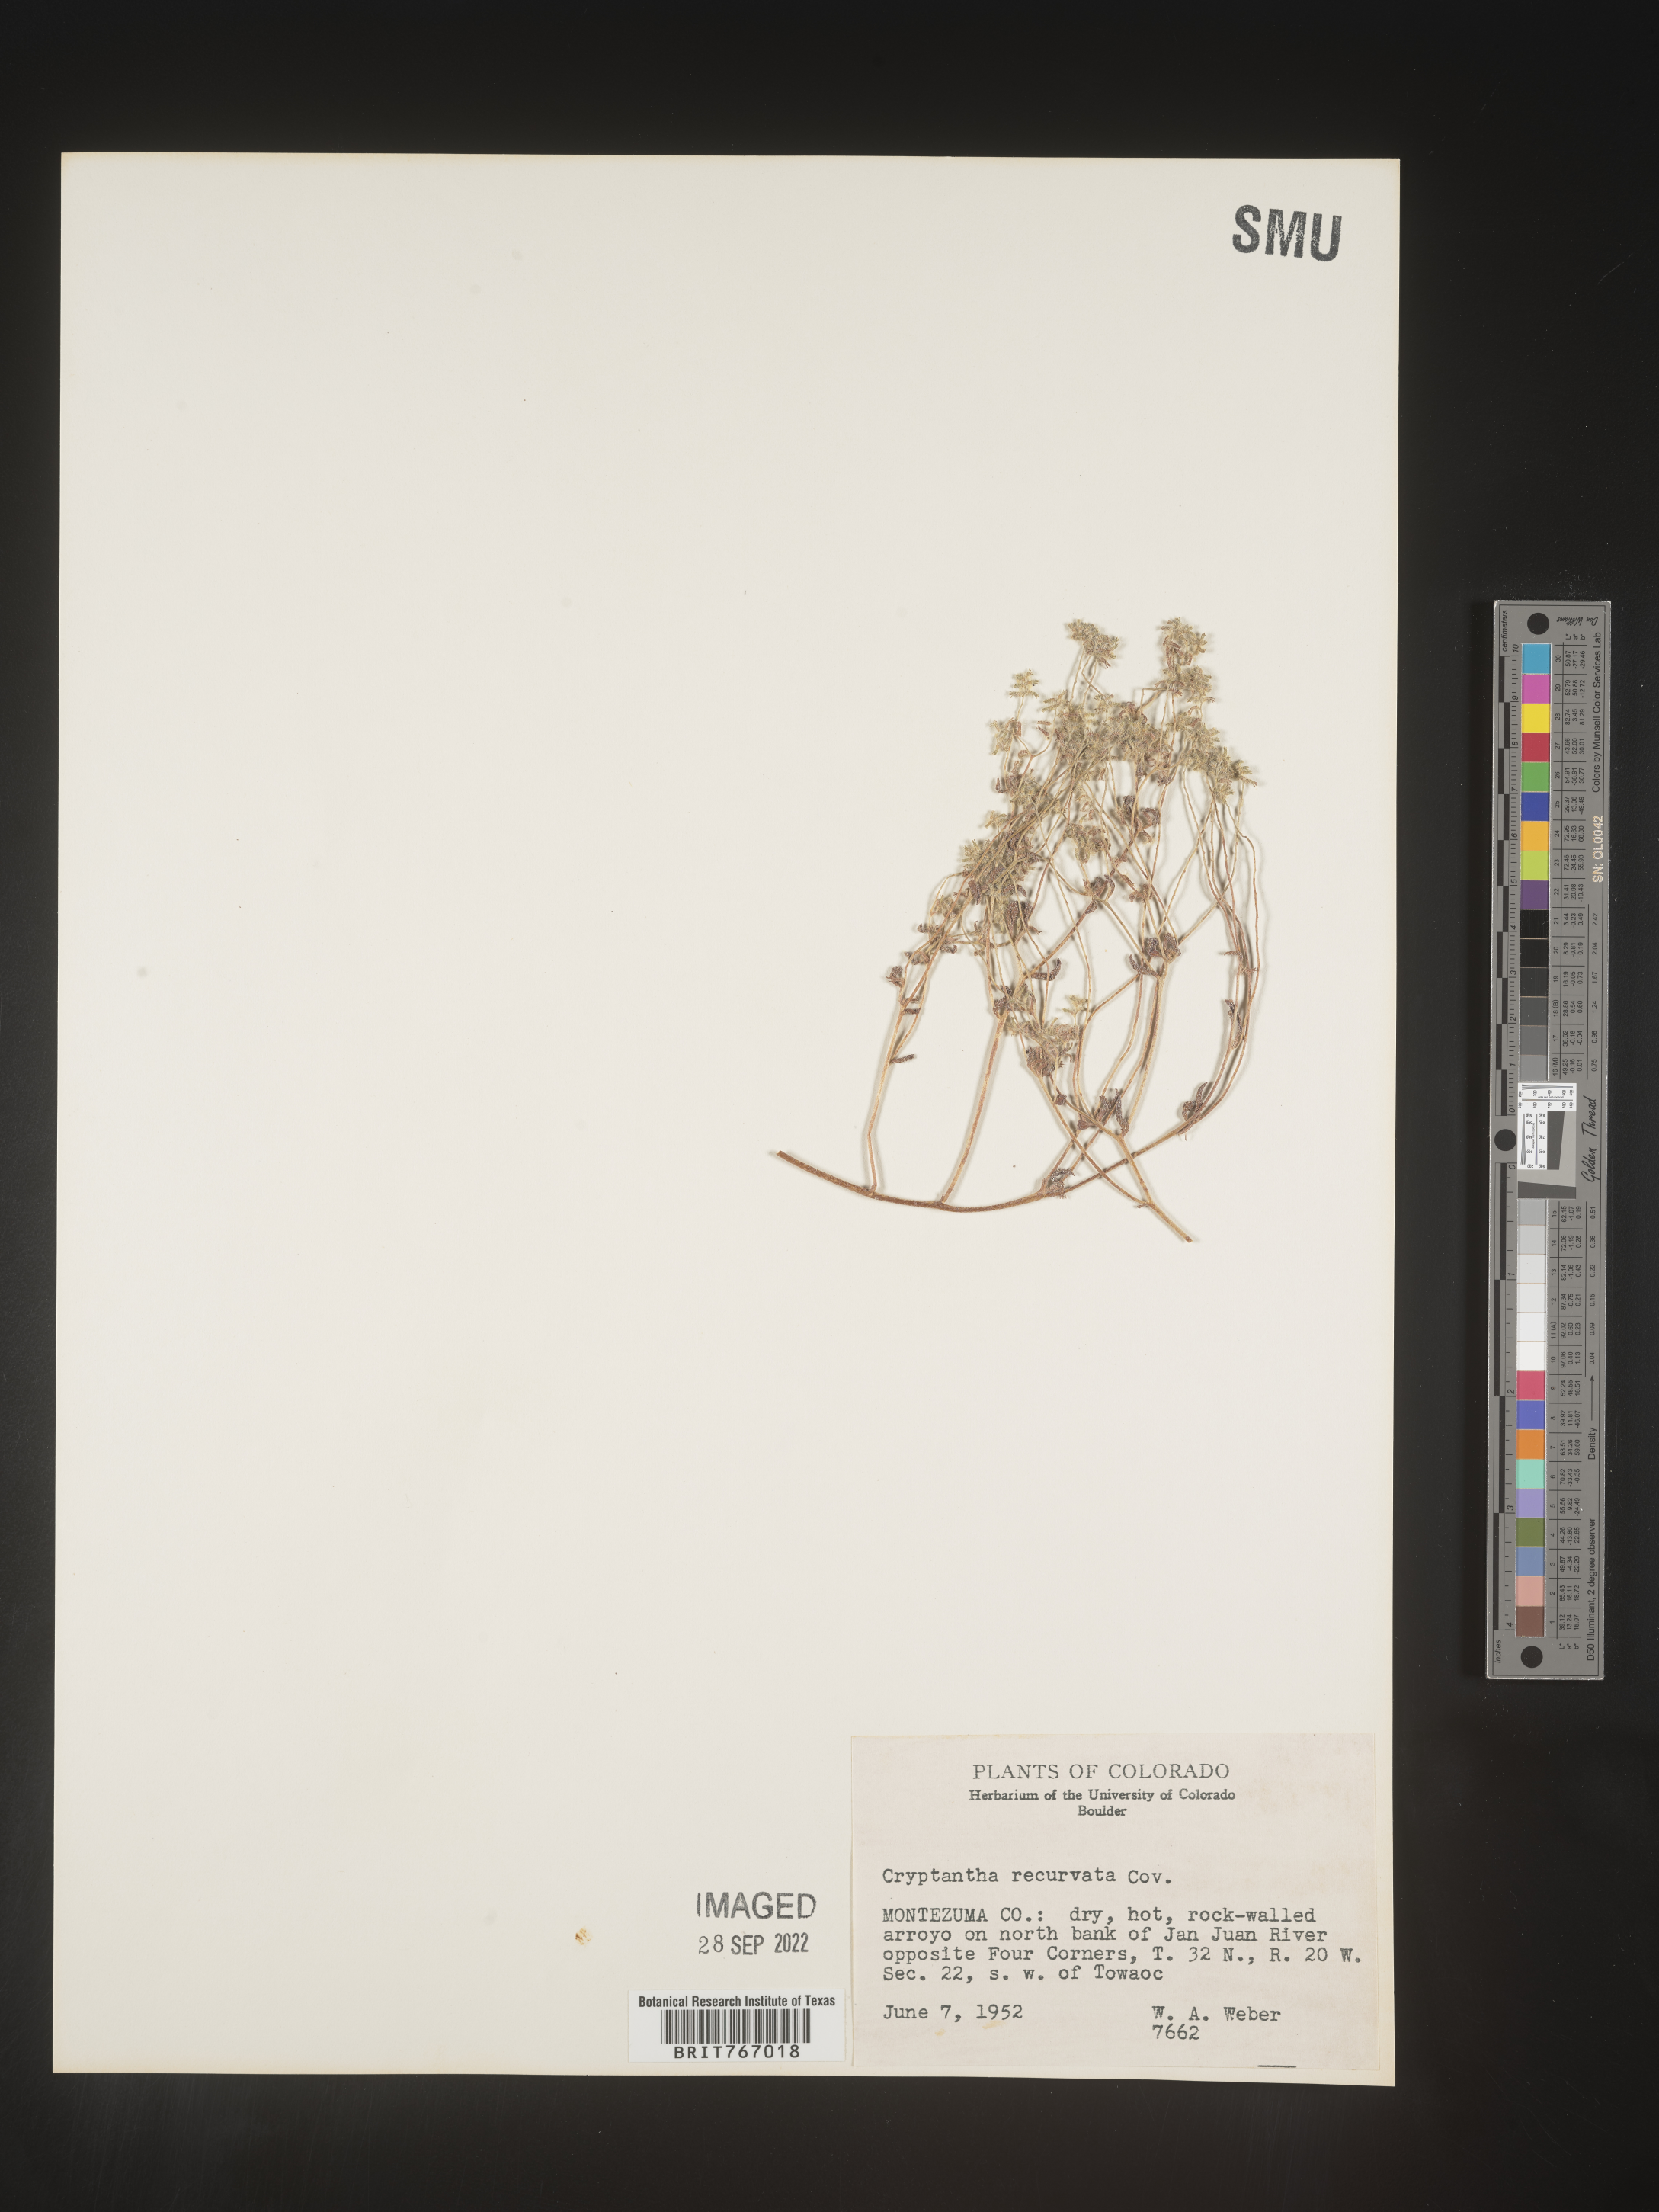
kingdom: Plantae
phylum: Tracheophyta
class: Magnoliopsida
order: Boraginales
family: Boraginaceae
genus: Cryptantha
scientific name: Cryptantha
